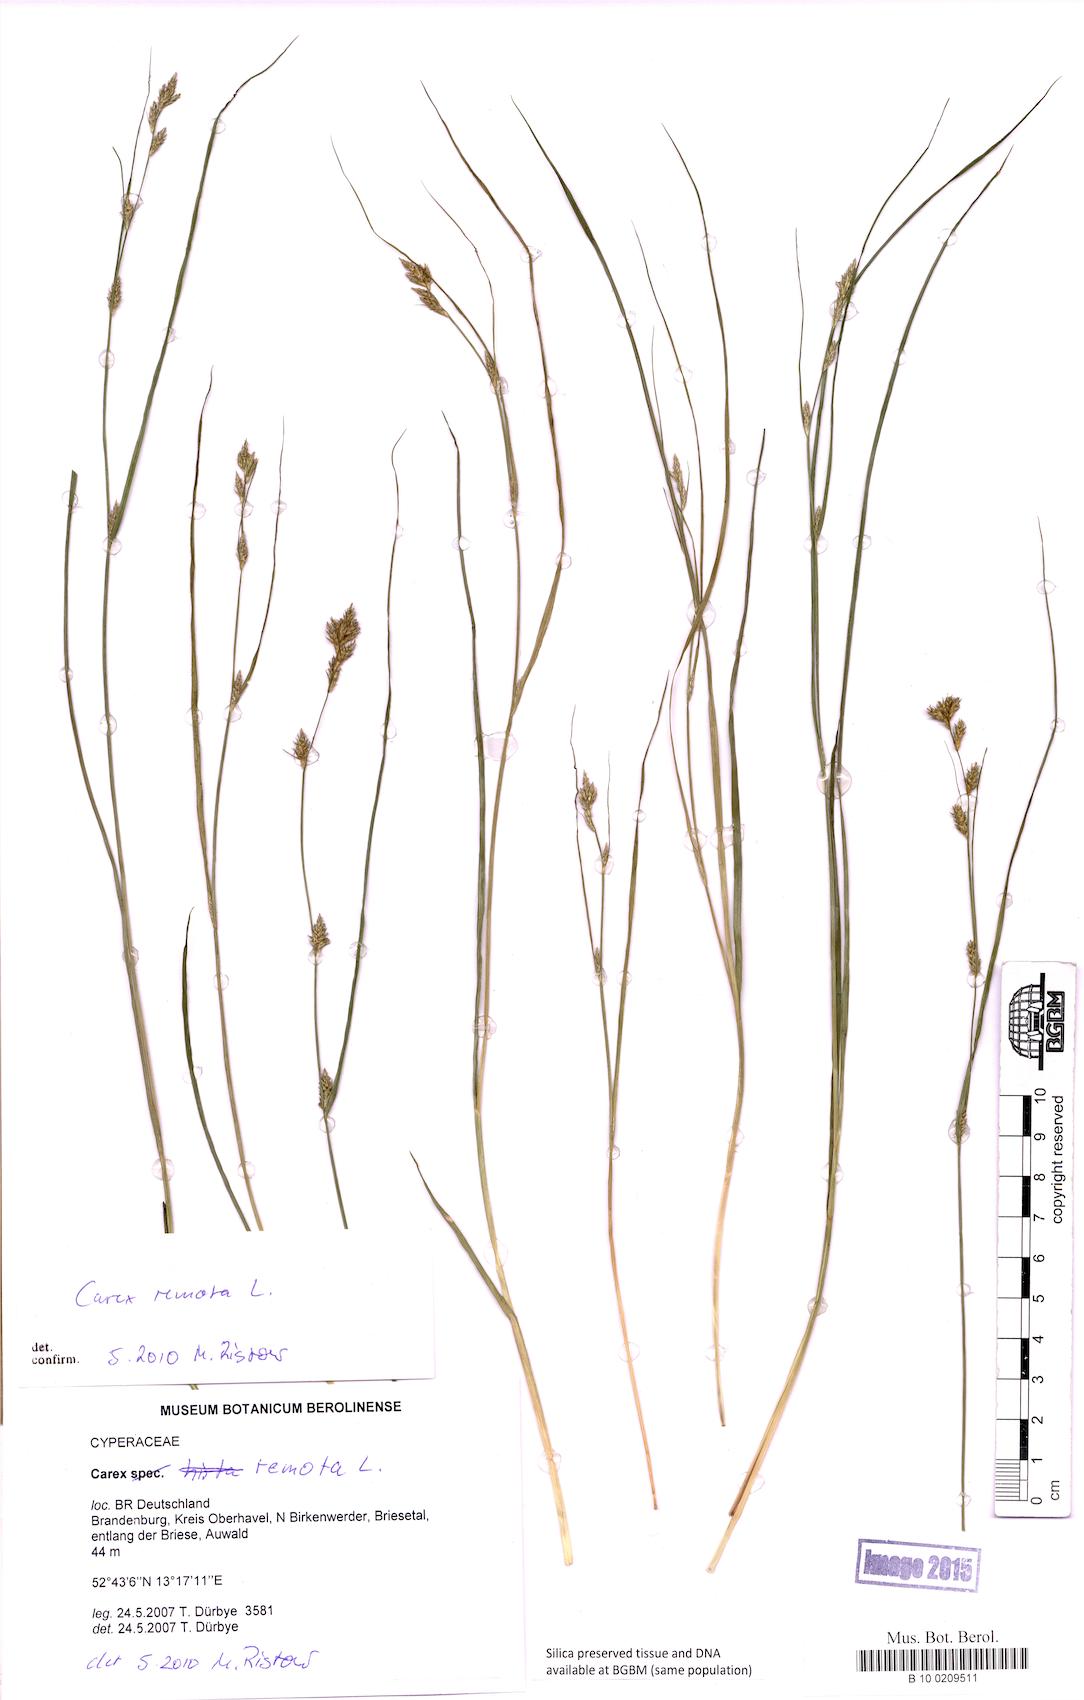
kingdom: Plantae
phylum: Tracheophyta
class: Liliopsida
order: Poales
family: Cyperaceae
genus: Carex
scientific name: Carex
